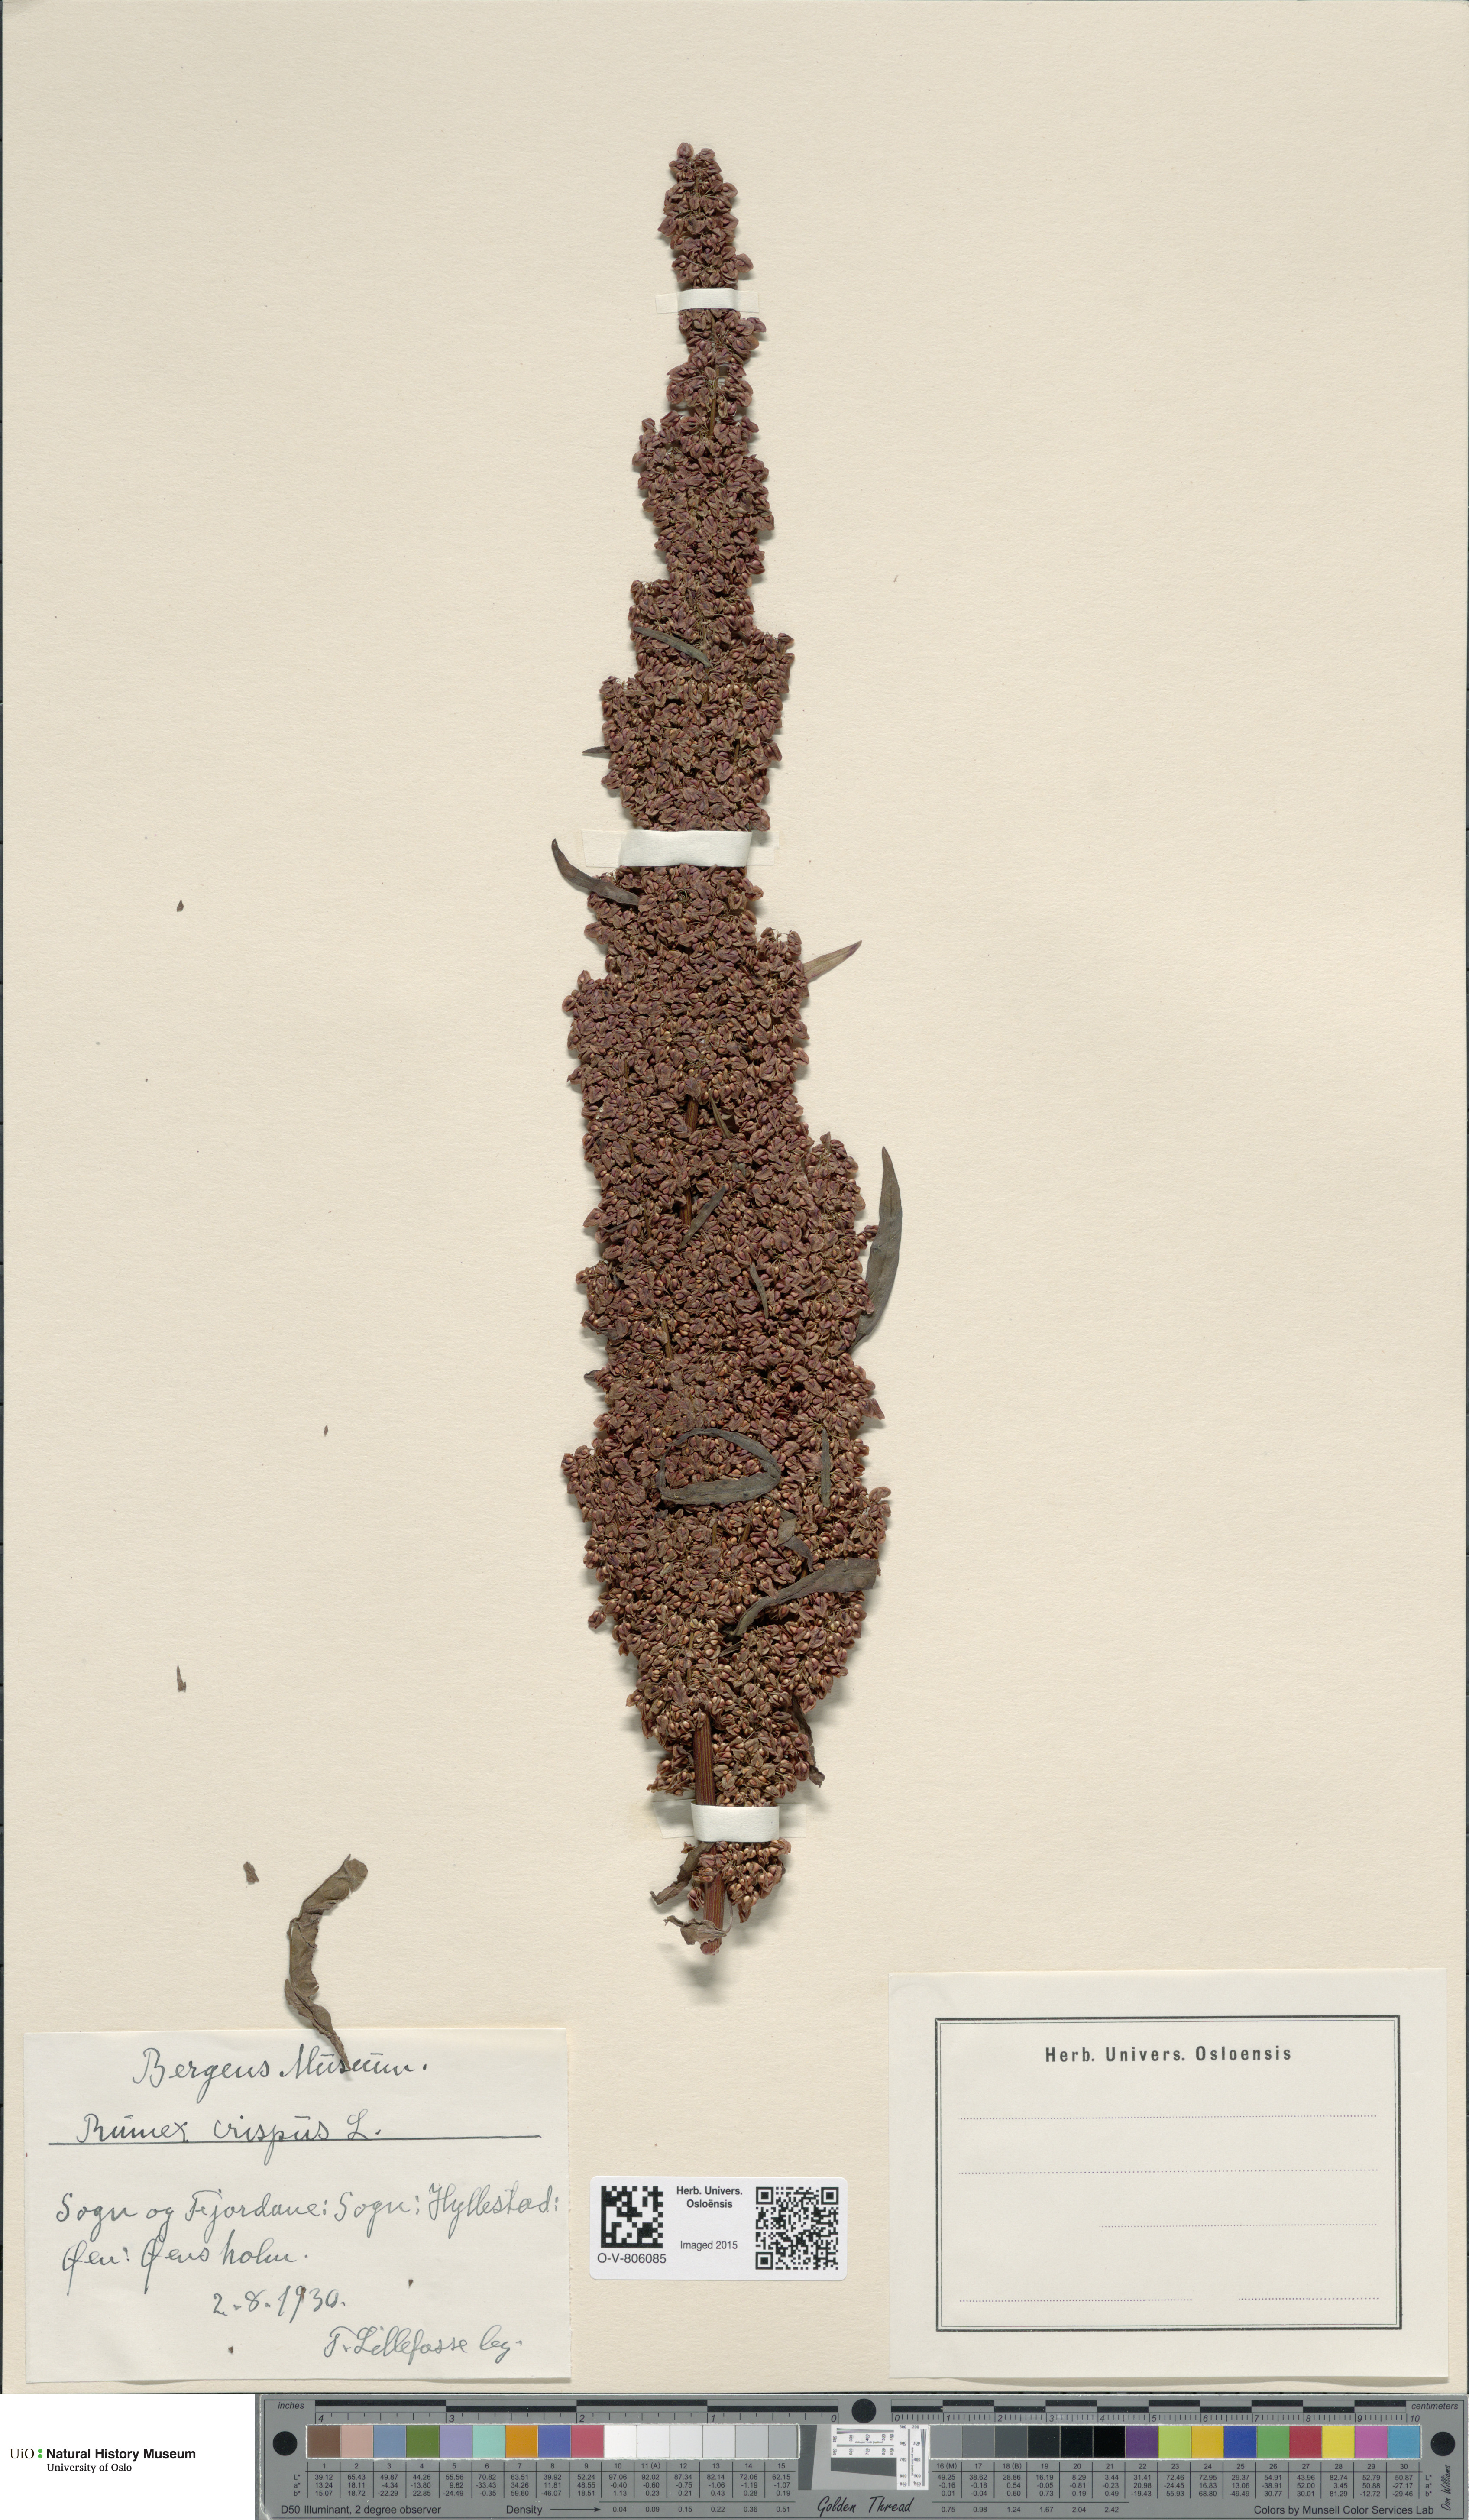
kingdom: Plantae
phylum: Tracheophyta
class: Magnoliopsida
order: Caryophyllales
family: Polygonaceae
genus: Rumex
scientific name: Rumex crispus
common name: Curled dock
